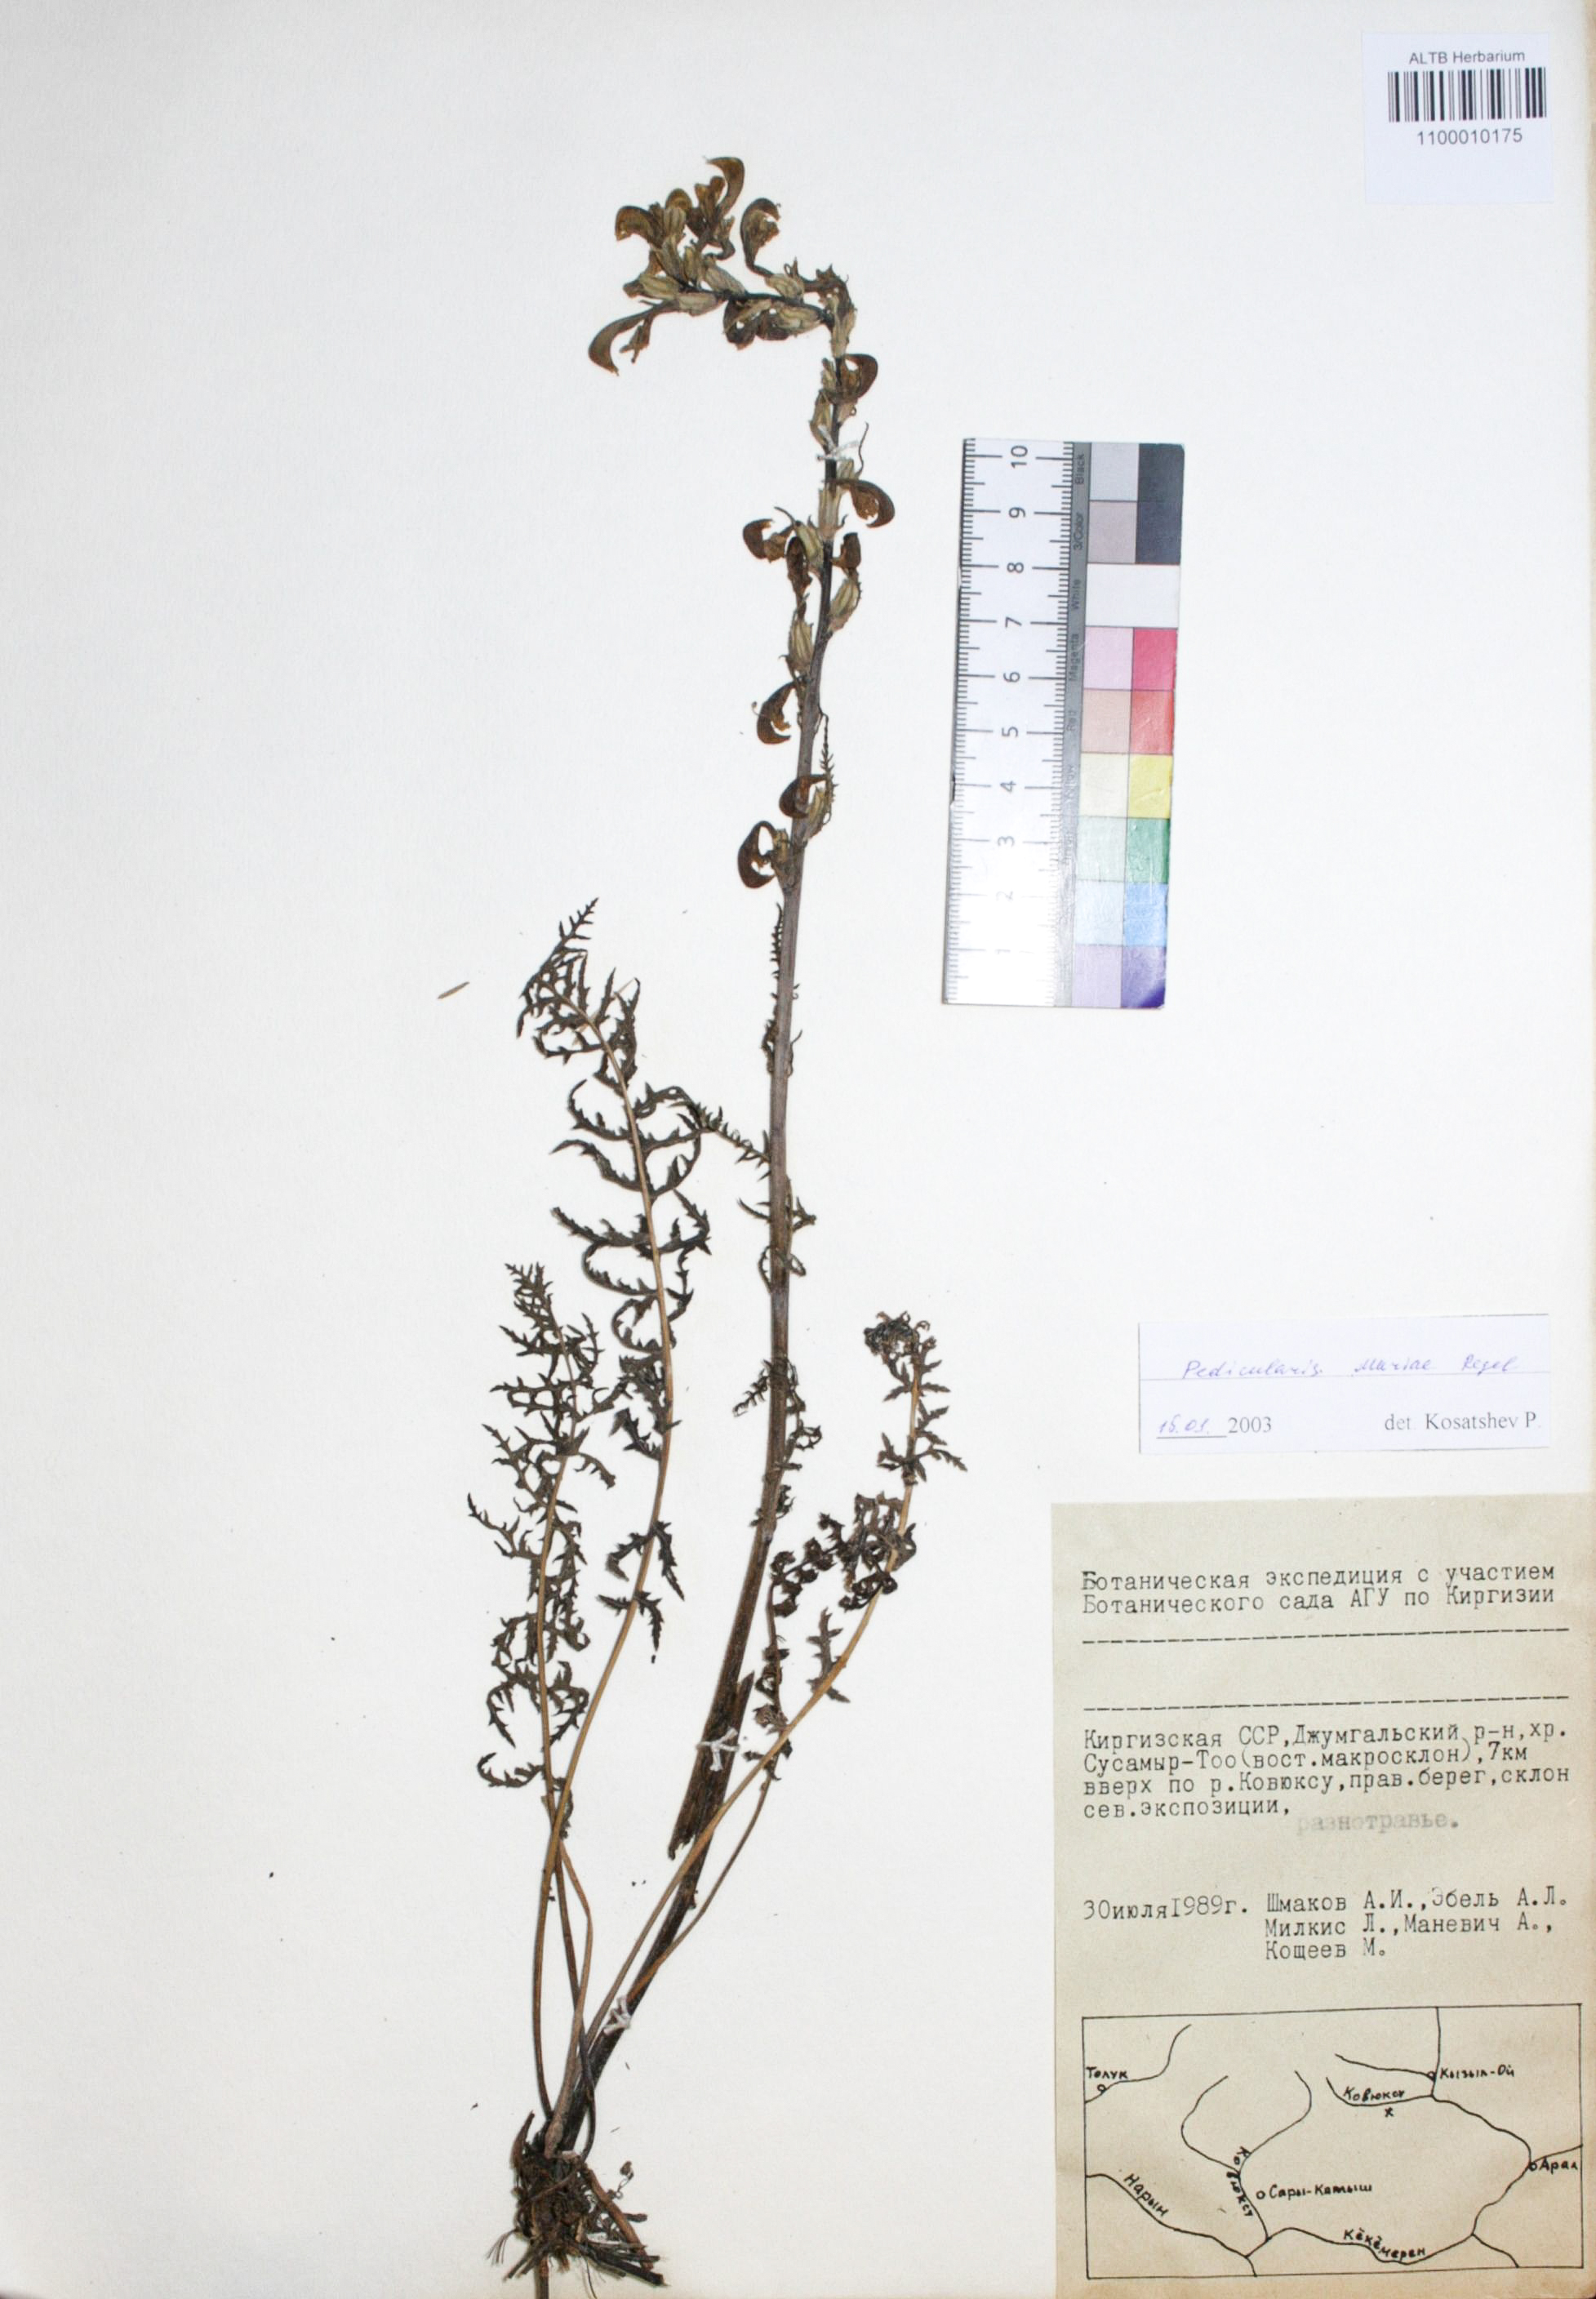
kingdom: Plantae
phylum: Tracheophyta
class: Magnoliopsida
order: Lamiales
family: Orobanchaceae
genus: Pedicularis
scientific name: Pedicularis longiflora
